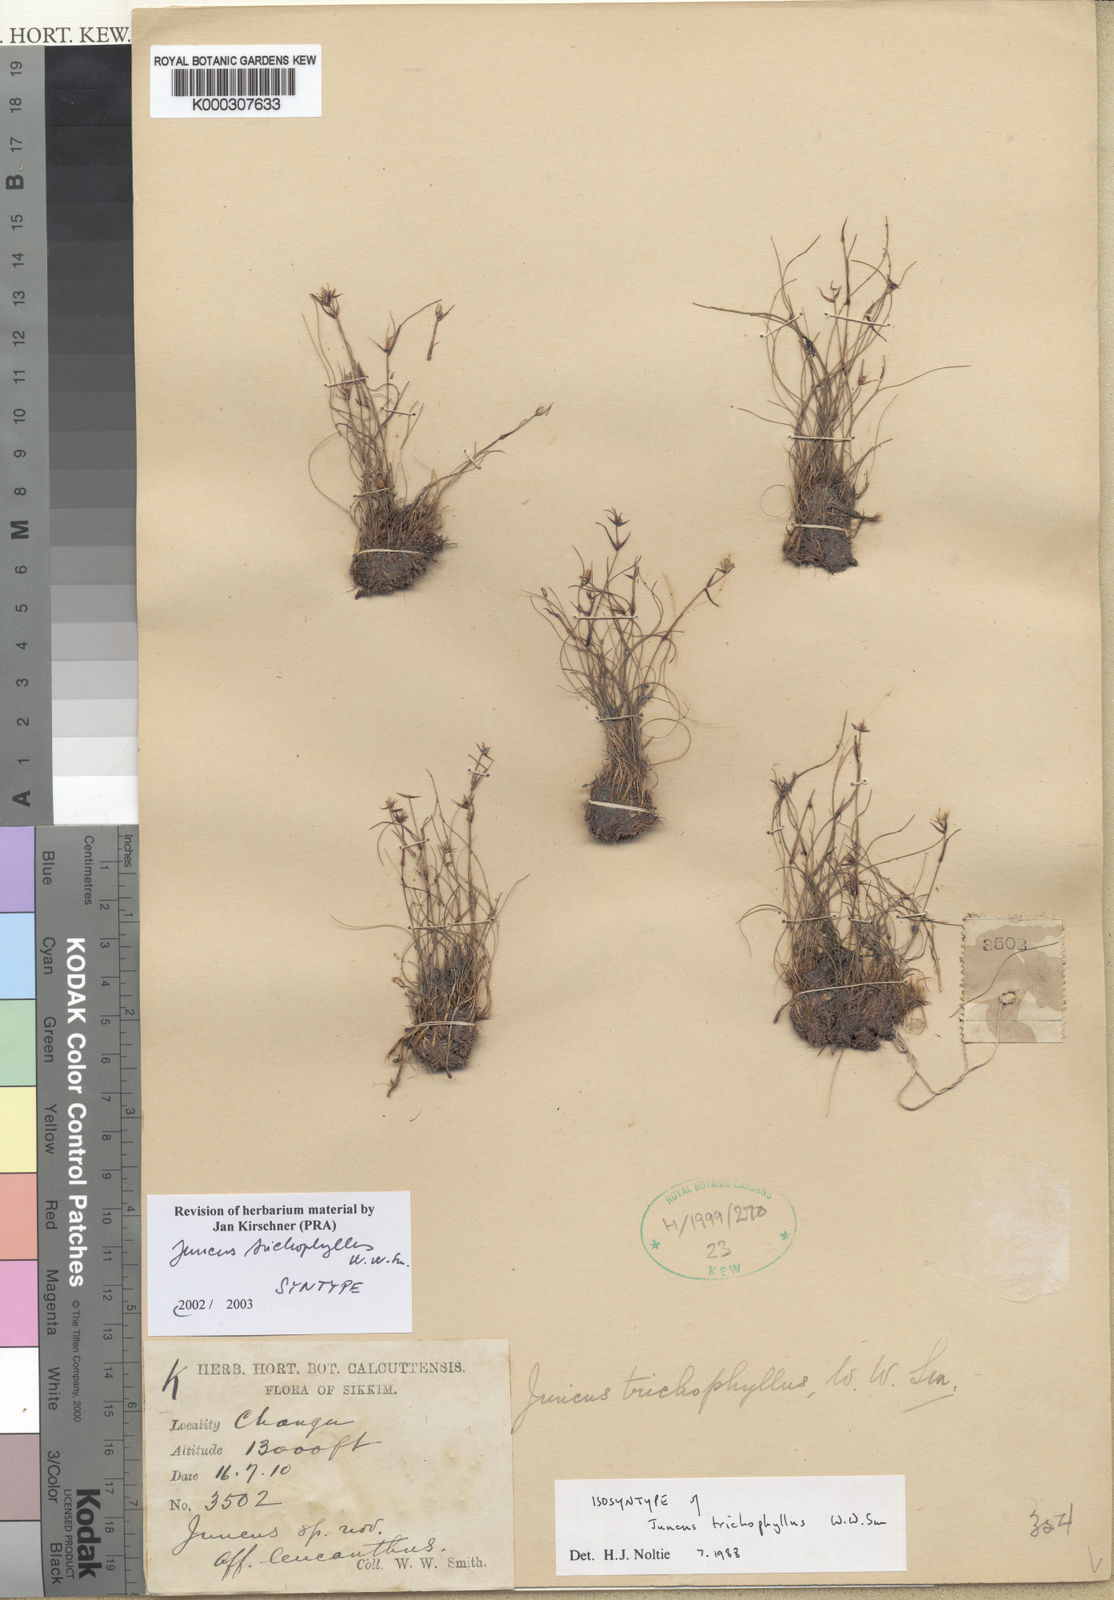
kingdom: Plantae
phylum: Tracheophyta
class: Liliopsida
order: Poales
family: Juncaceae
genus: Juncus
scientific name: Juncus trichophyllus
